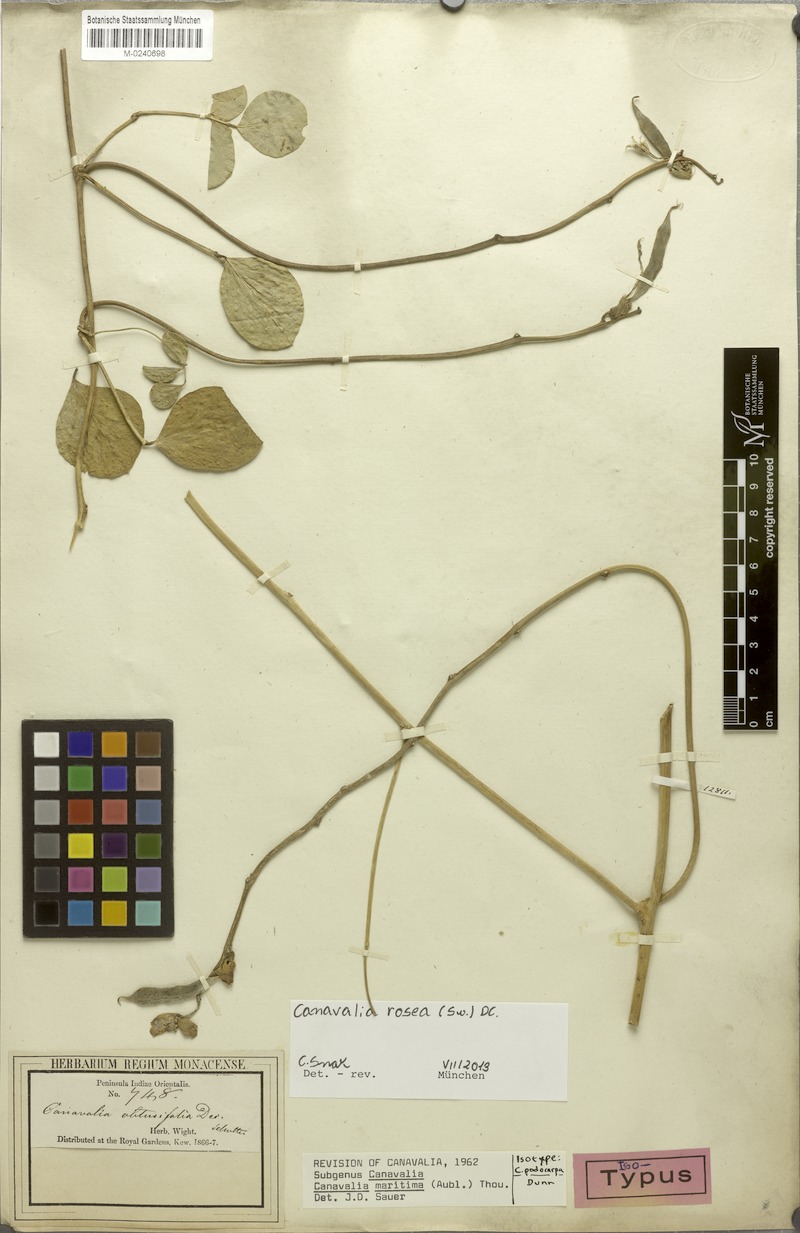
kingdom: Plantae
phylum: Tracheophyta
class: Magnoliopsida
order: Fabales
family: Fabaceae
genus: Canavalia
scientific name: Canavalia rosea
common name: Beach-bean
